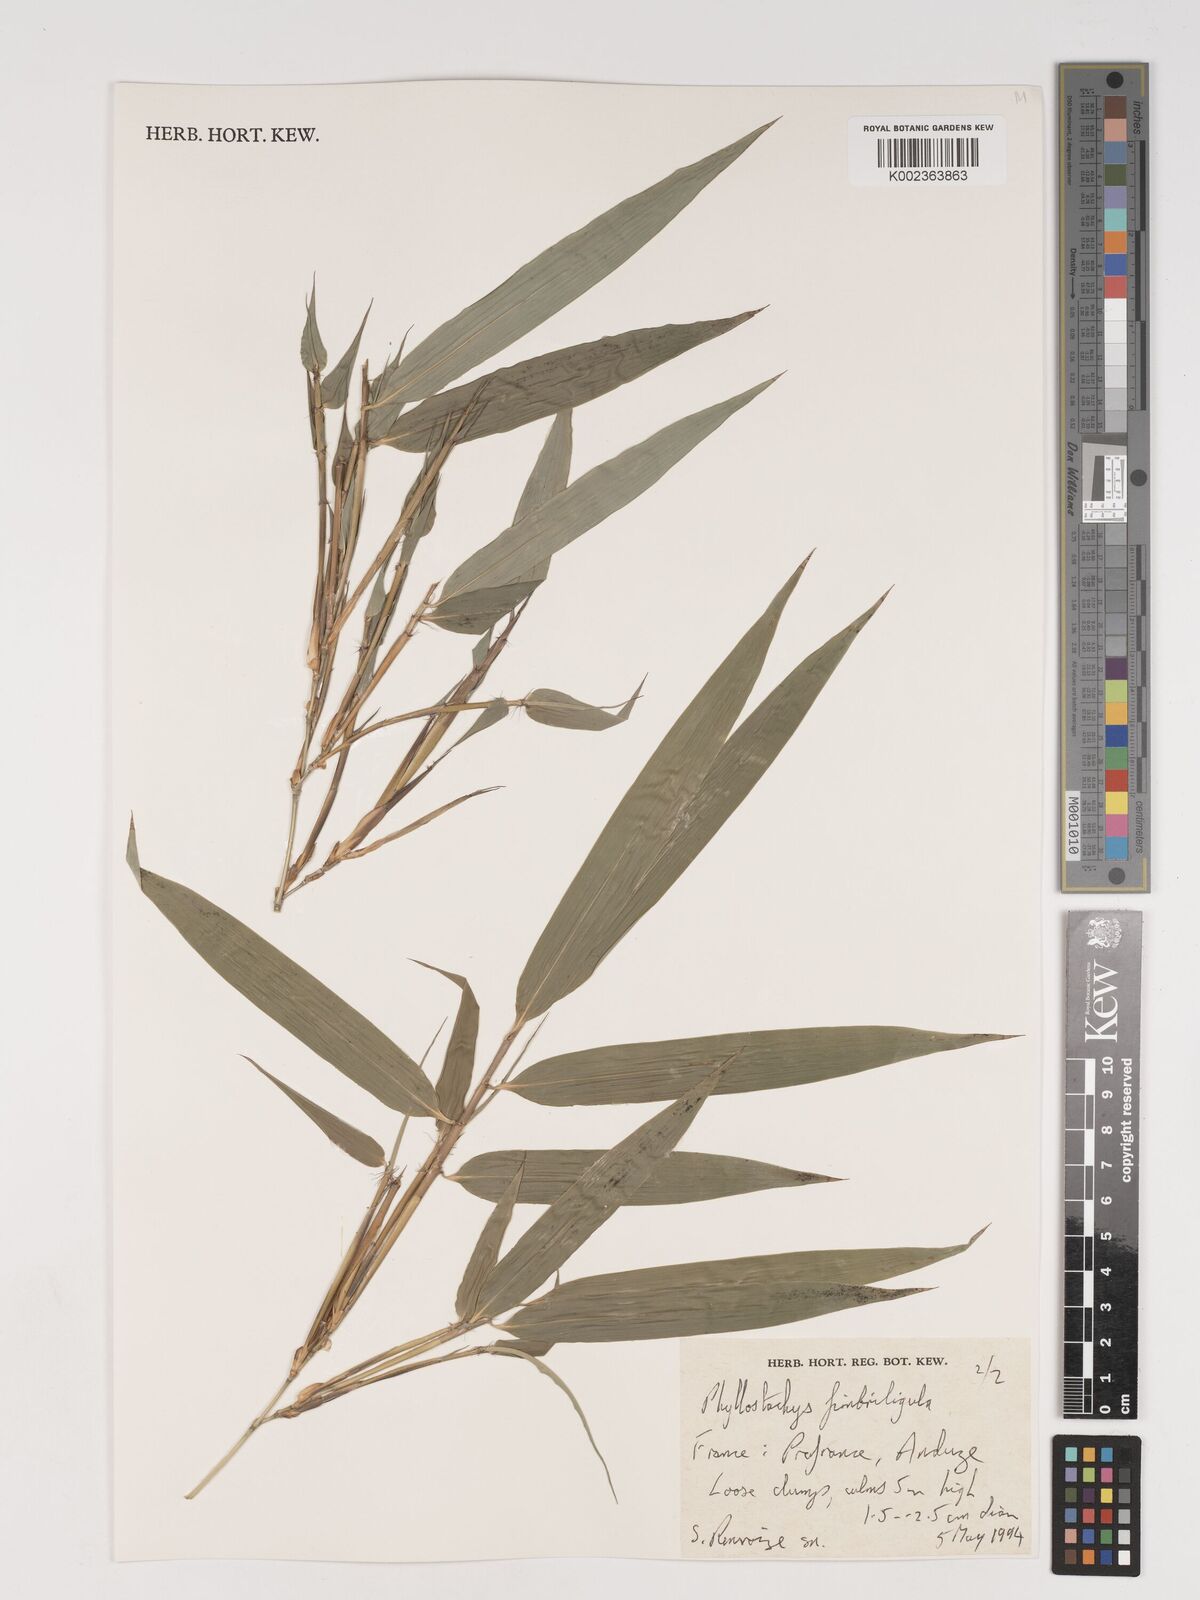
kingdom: Plantae
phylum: Tracheophyta
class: Liliopsida
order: Poales
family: Poaceae
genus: Phyllostachys
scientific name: Phyllostachys
